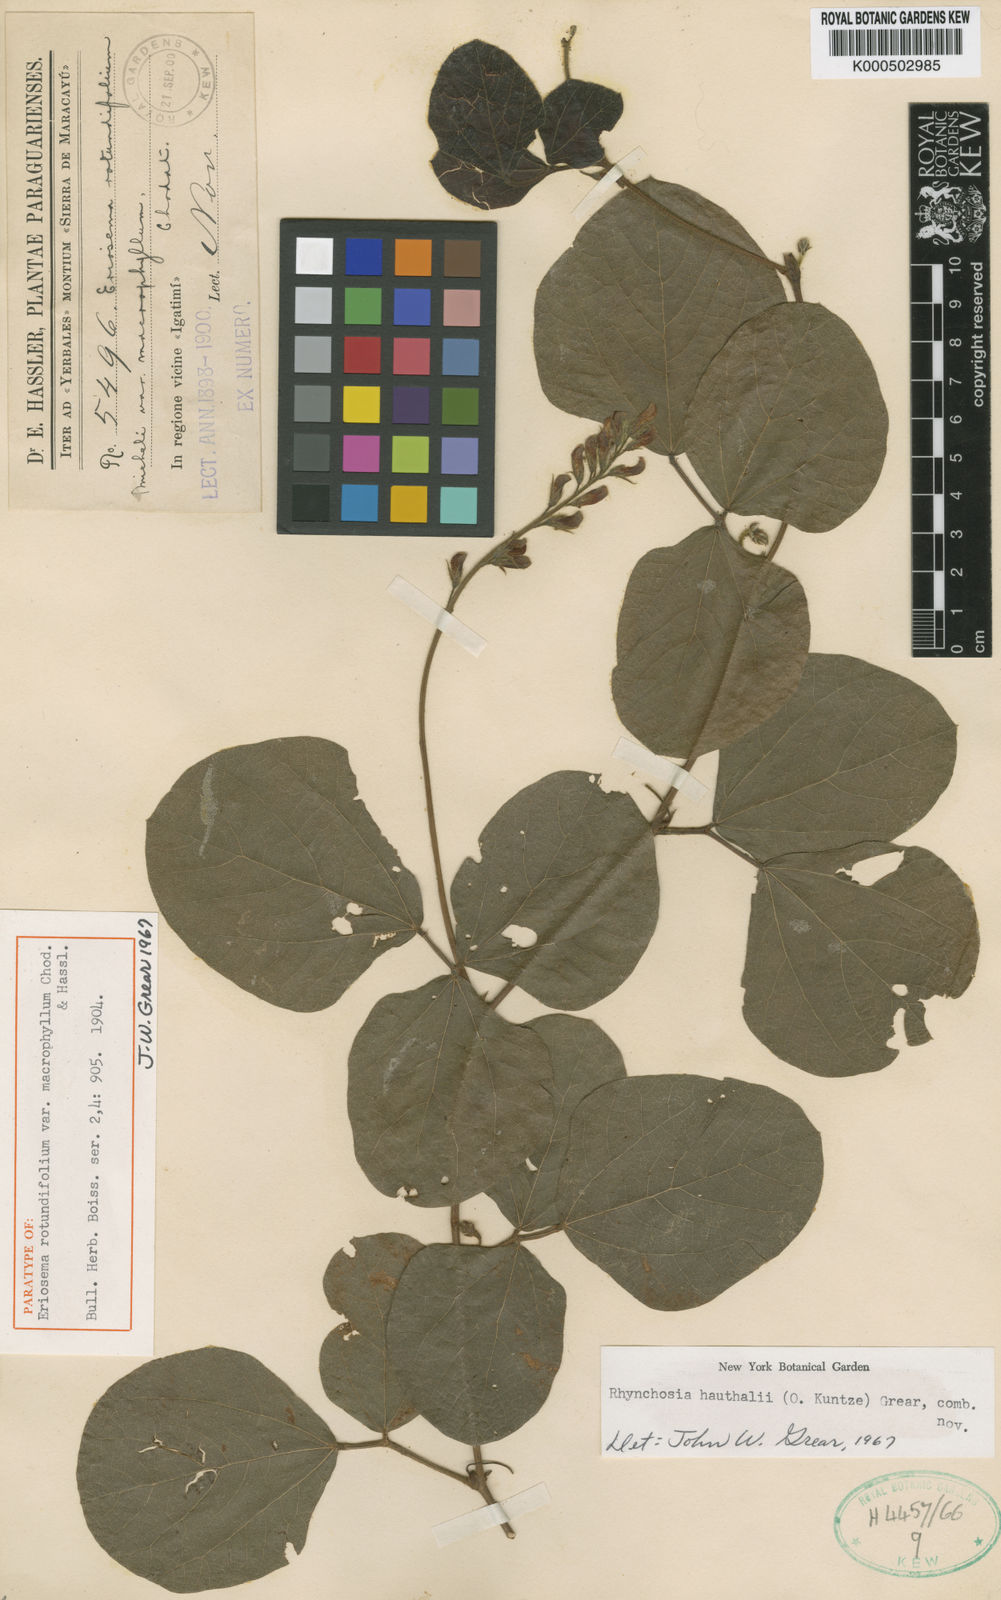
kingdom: Plantae
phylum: Tracheophyta
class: Magnoliopsida
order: Fabales
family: Fabaceae
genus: Rhynchosia
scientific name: Rhynchosia
